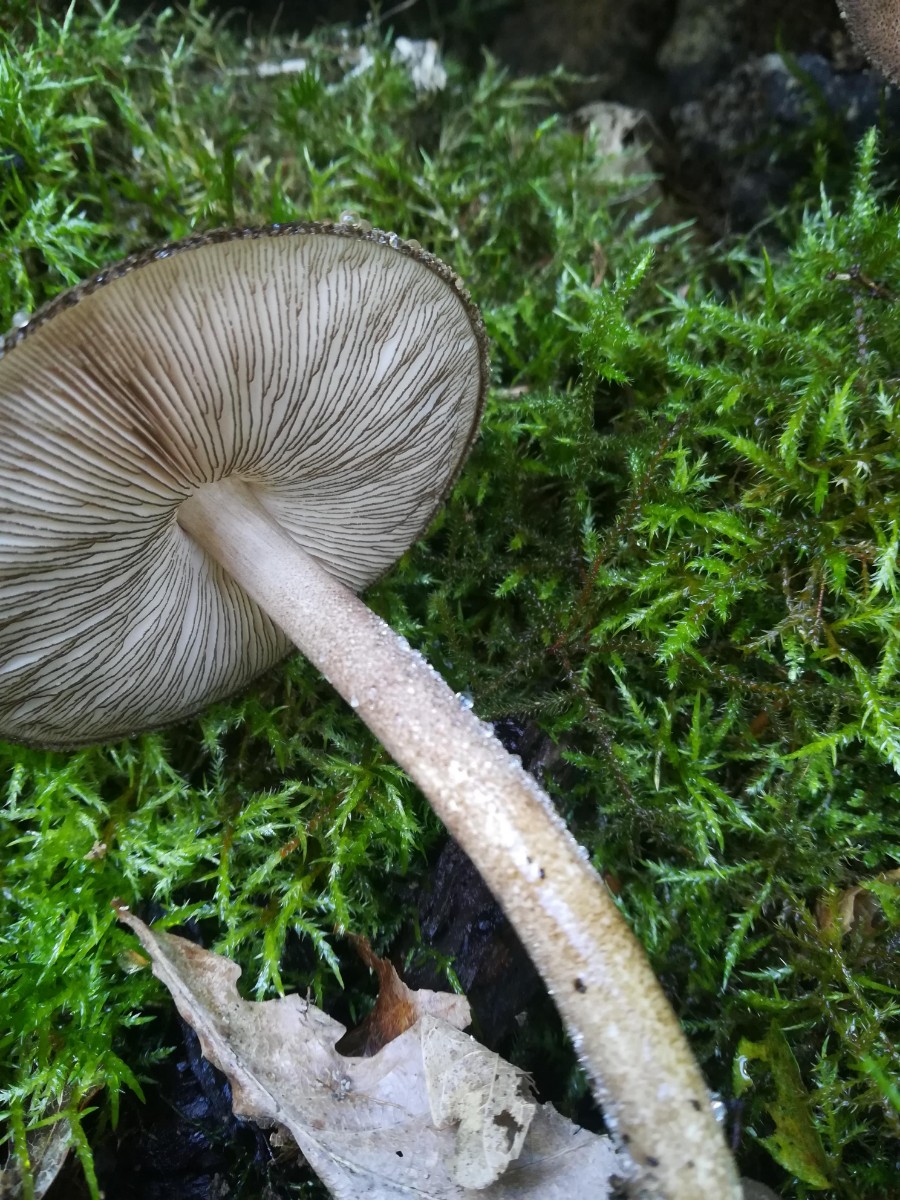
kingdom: Fungi
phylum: Basidiomycota
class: Agaricomycetes
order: Agaricales
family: Pluteaceae
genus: Pluteus
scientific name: Pluteus umbrosus
